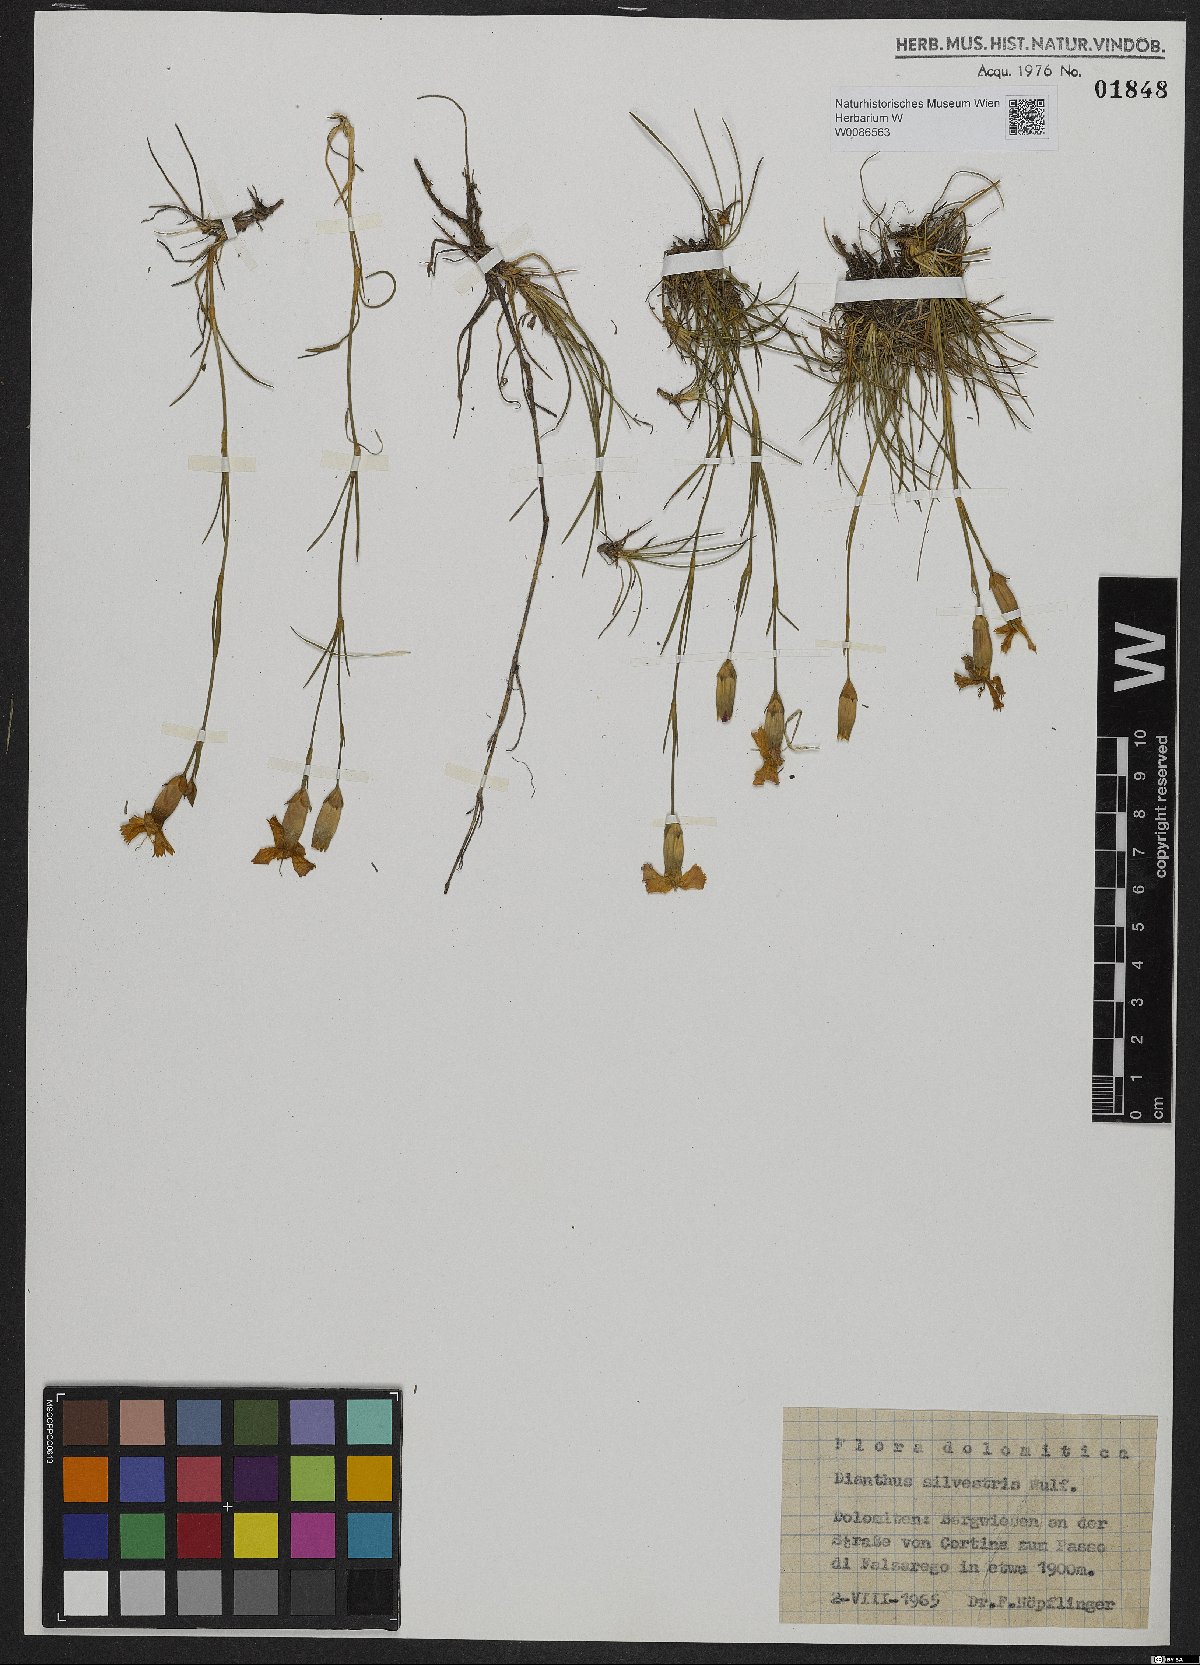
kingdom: Plantae
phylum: Tracheophyta
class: Magnoliopsida
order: Caryophyllales
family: Caryophyllaceae
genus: Dianthus
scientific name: Dianthus sylvestris
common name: Wood pink
